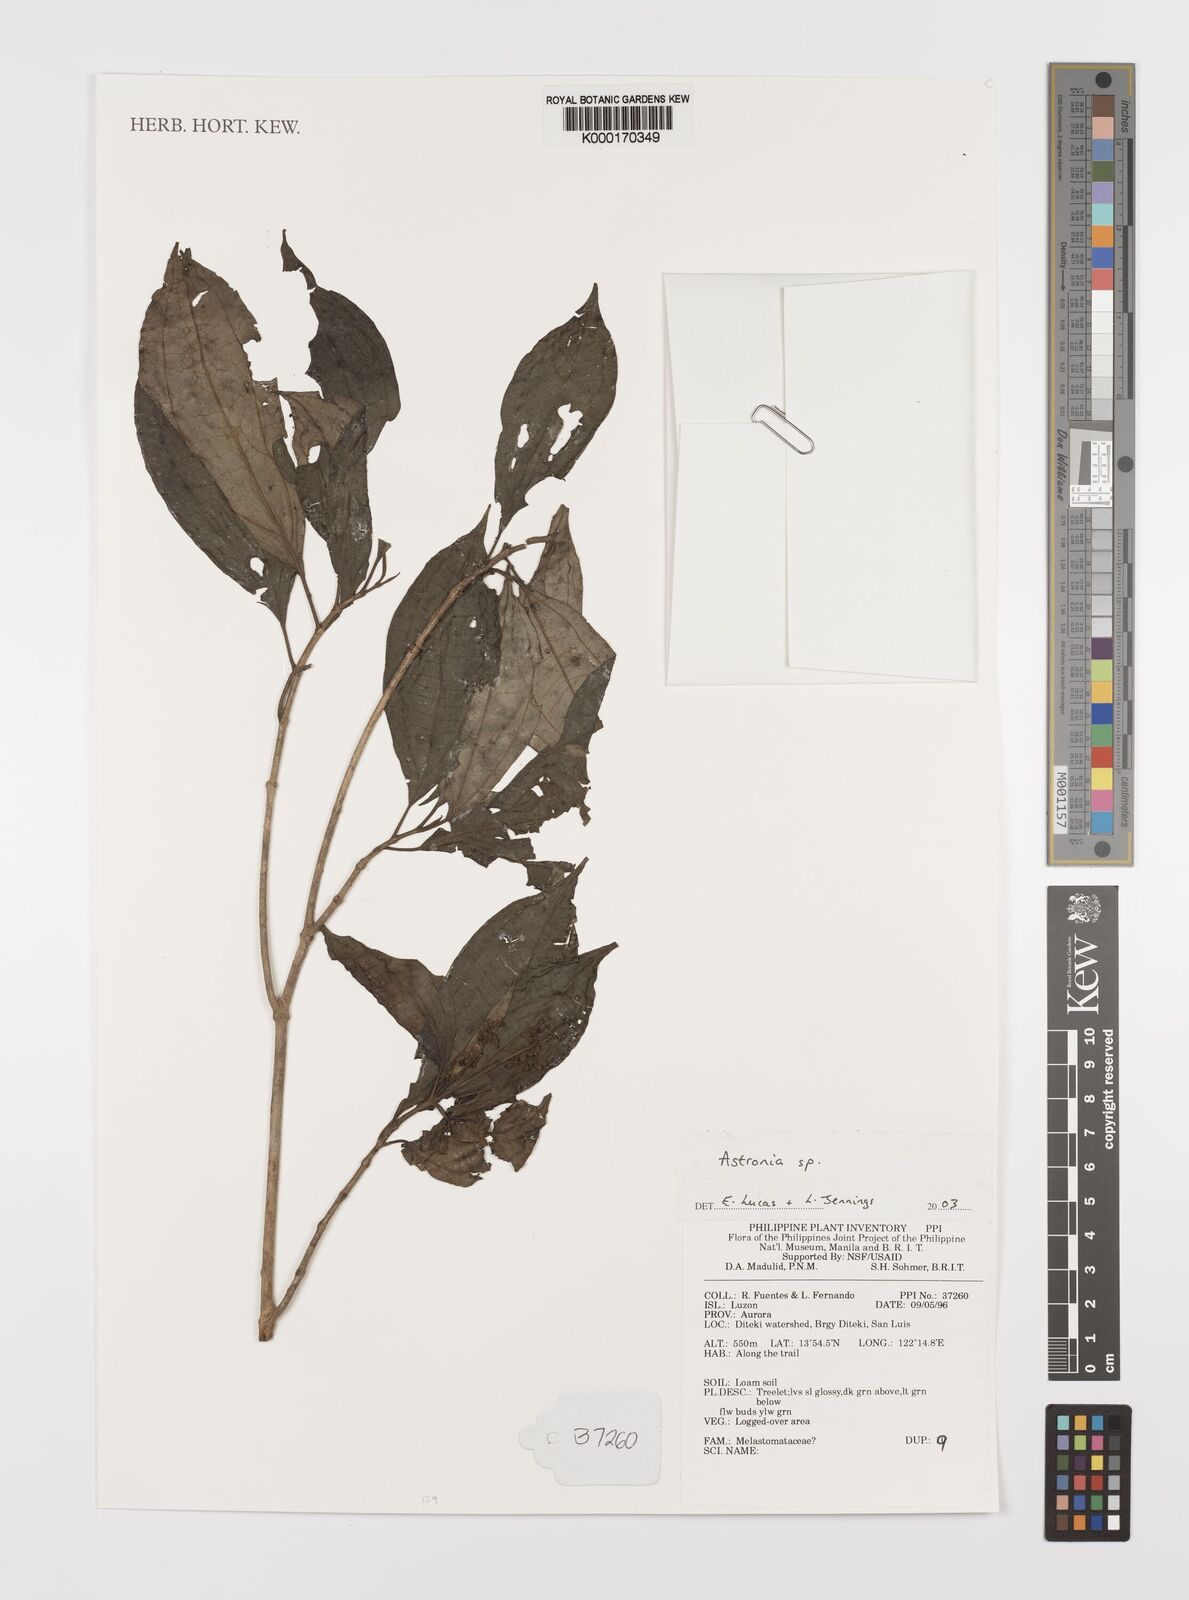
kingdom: Plantae
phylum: Tracheophyta
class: Magnoliopsida
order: Myrtales
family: Melastomataceae
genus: Astronia
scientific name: Astronia
